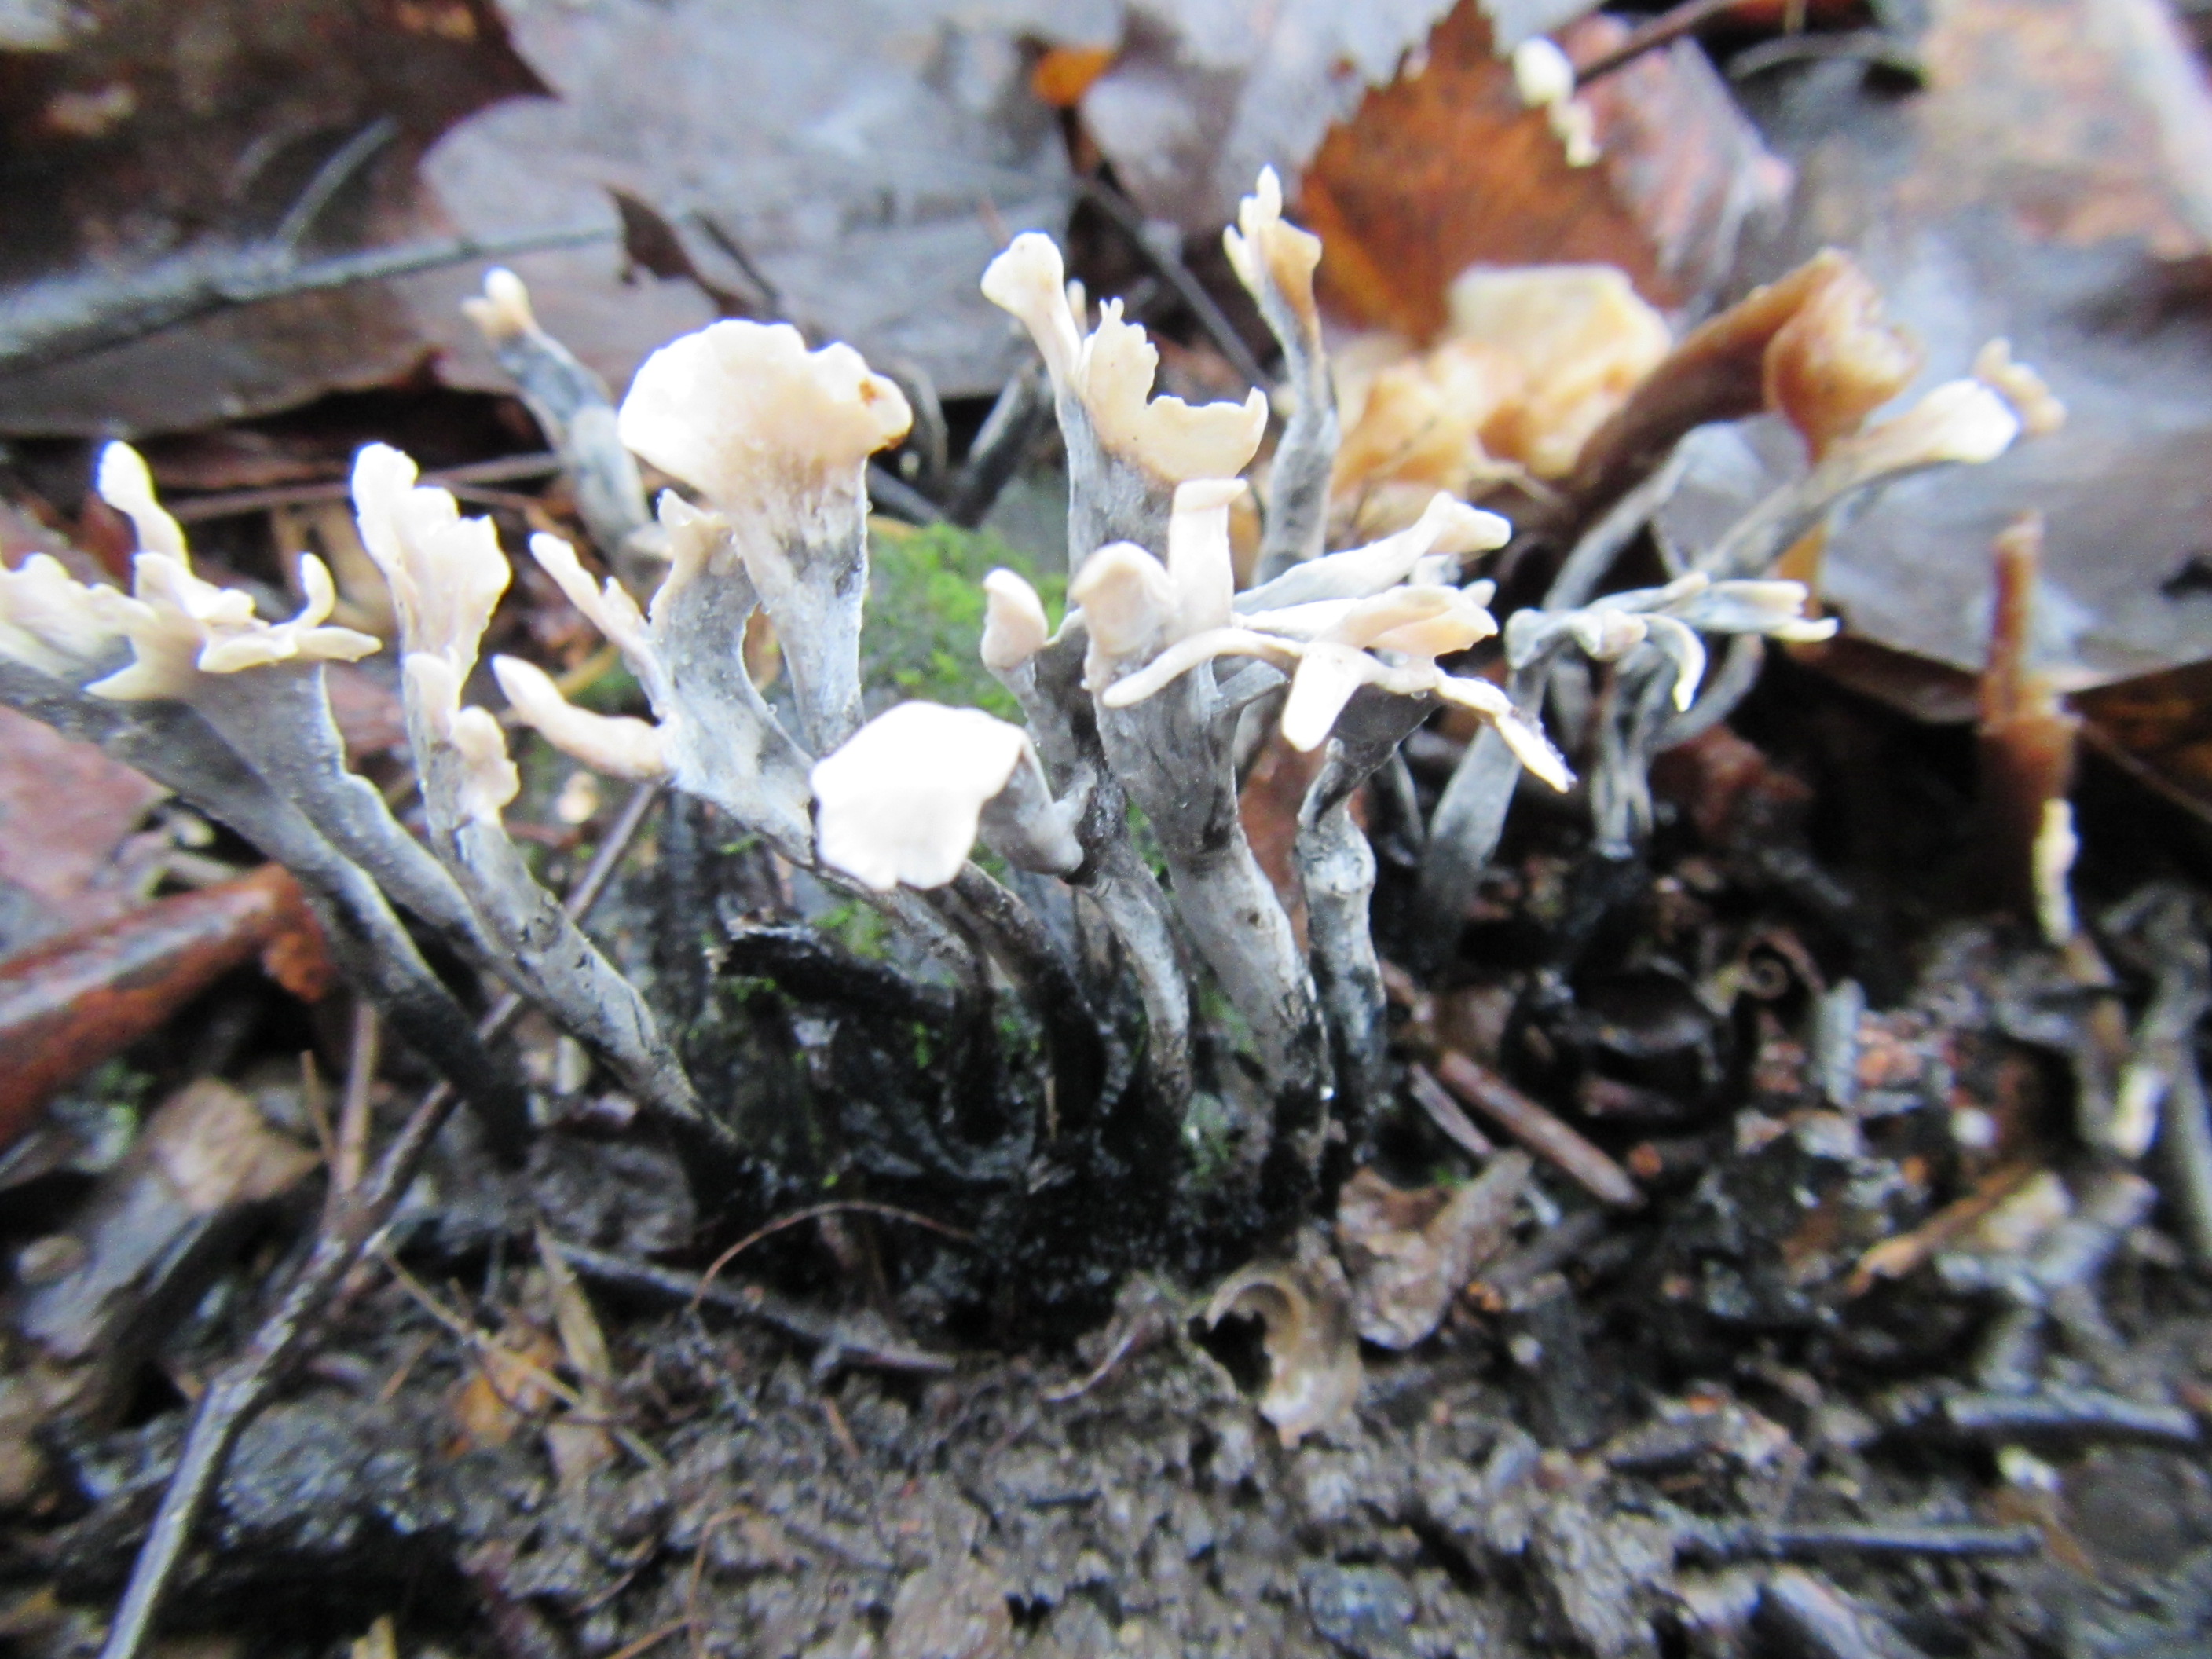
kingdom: Fungi
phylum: Ascomycota
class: Sordariomycetes
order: Xylariales
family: Xylariaceae
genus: Xylaria
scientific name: Xylaria hypoxylon
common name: Candle-snuff fungus
